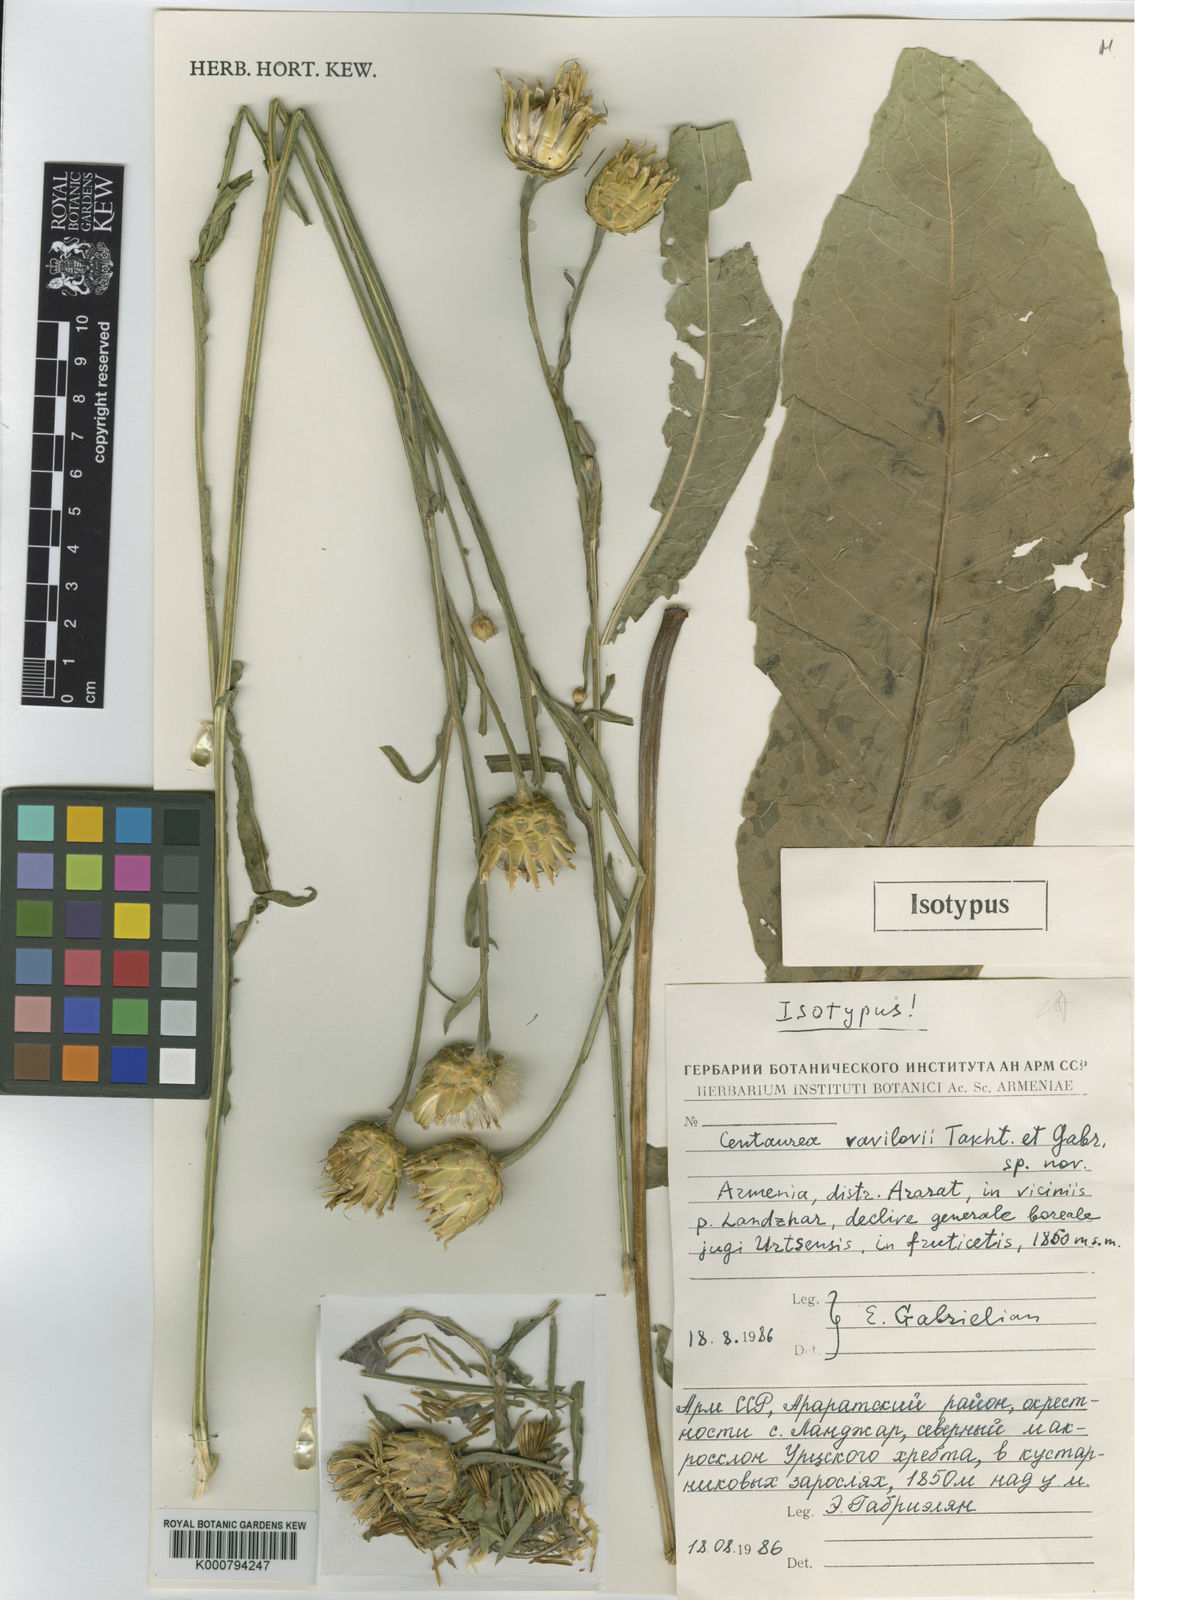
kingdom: Plantae
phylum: Tracheophyta
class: Magnoliopsida
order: Asterales
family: Asteraceae
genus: Centaurea
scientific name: Centaurea vavilovii
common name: Vavilov's centaury
